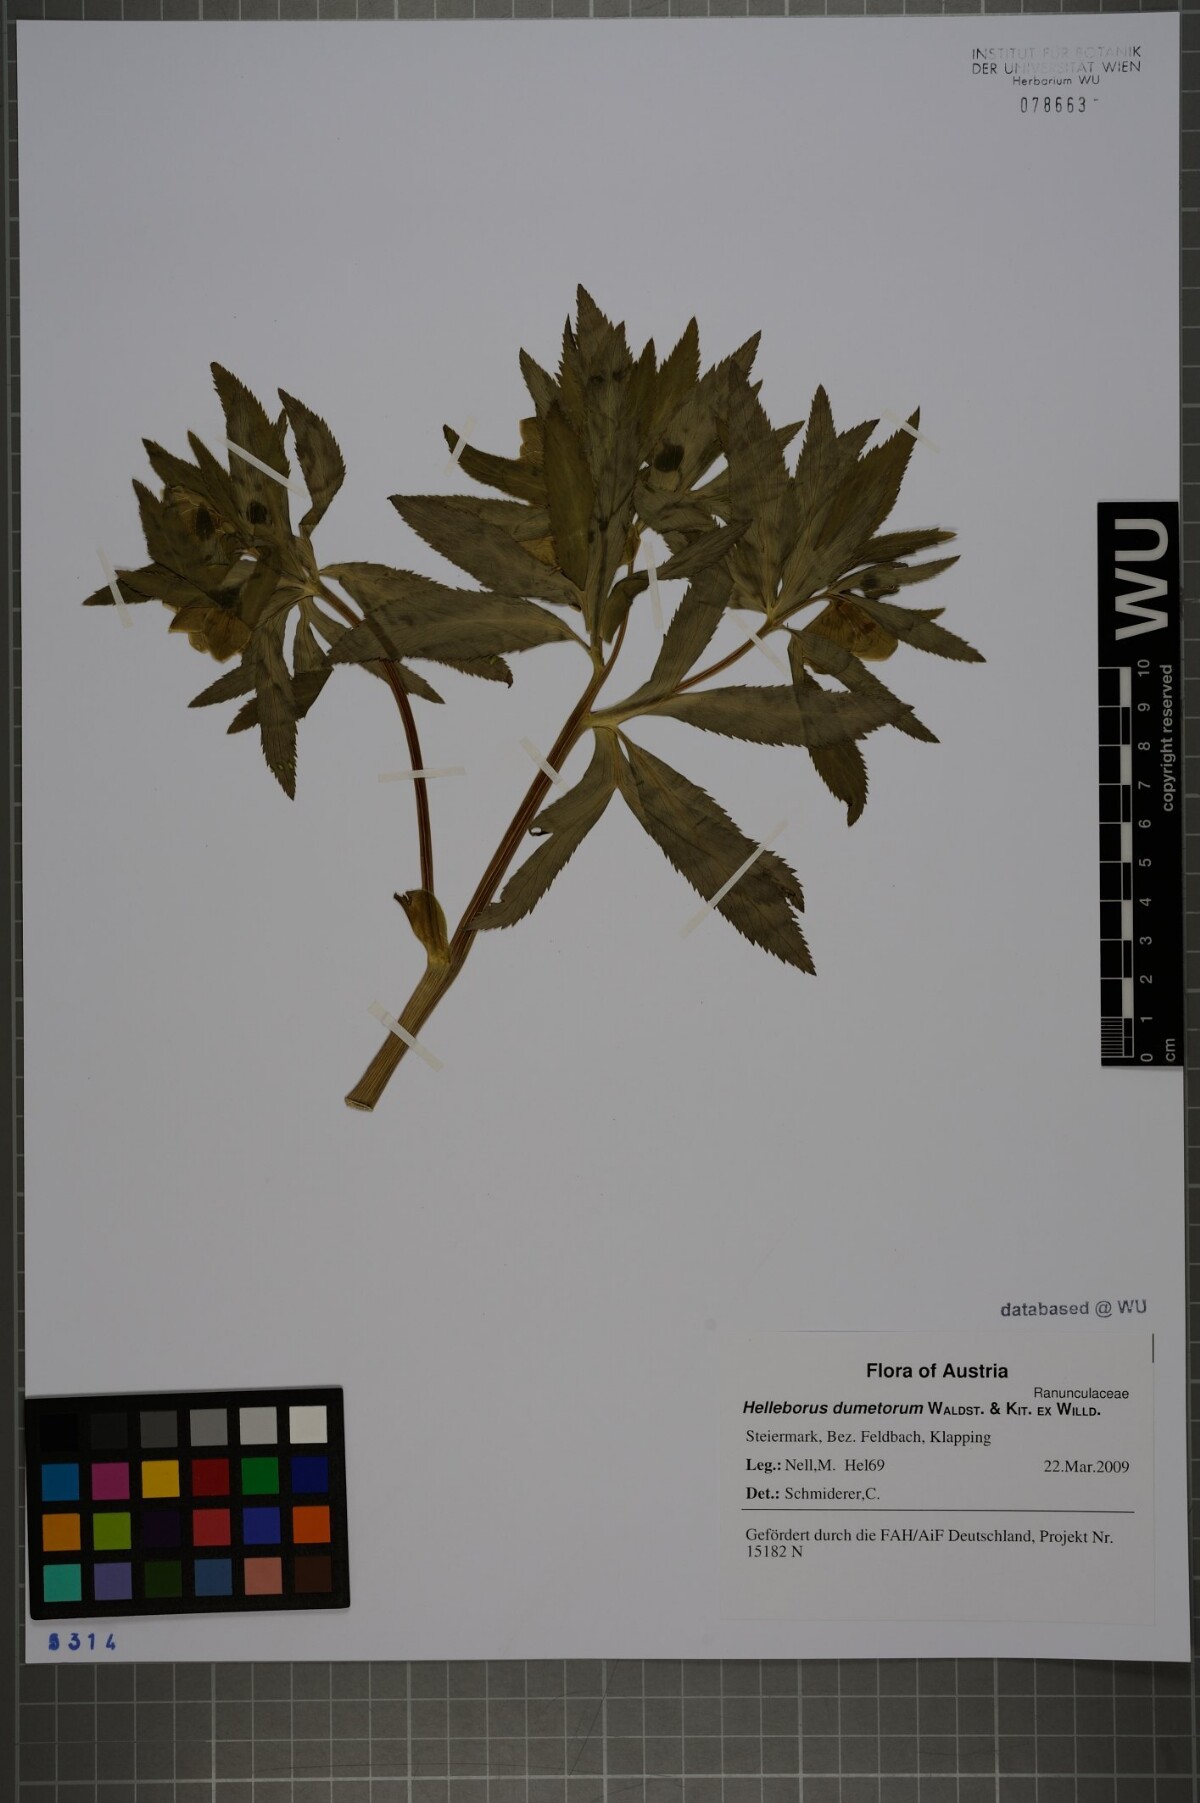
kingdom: Plantae
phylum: Tracheophyta
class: Magnoliopsida
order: Ranunculales
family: Ranunculaceae
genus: Helleborus
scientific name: Helleborus dumetorum
